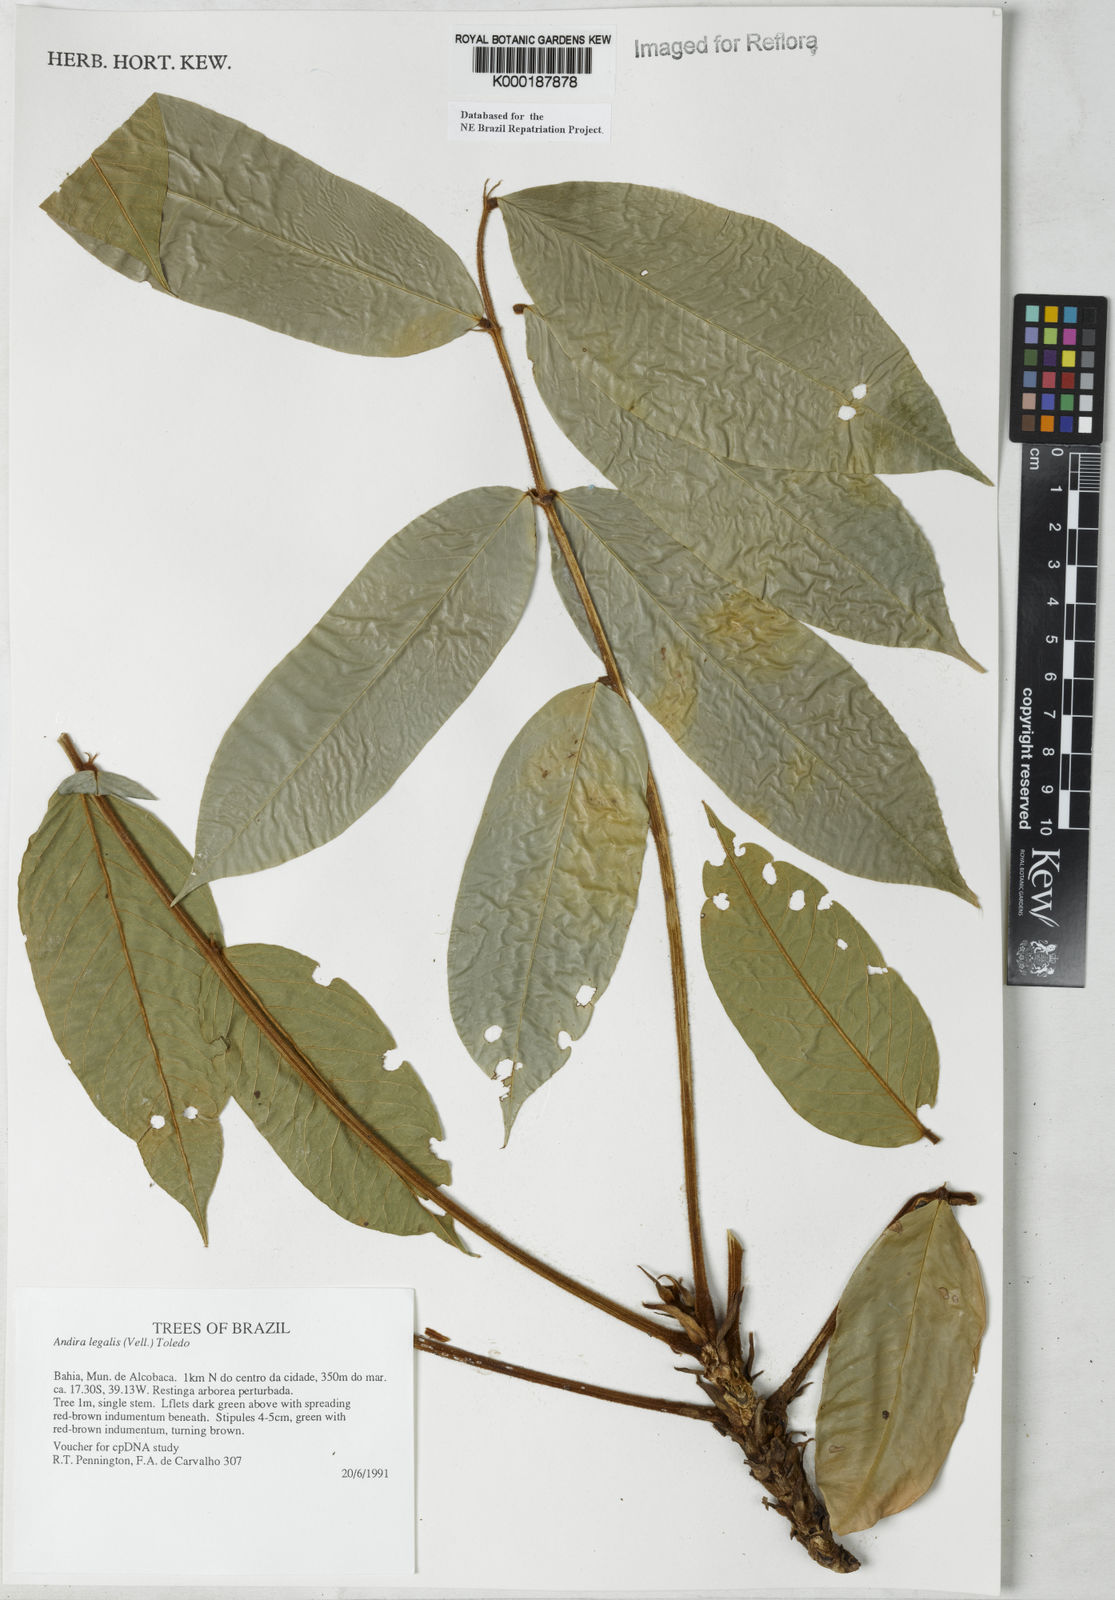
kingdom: Plantae
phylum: Tracheophyta
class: Magnoliopsida
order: Fabales
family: Fabaceae
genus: Andira
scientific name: Andira legalis
